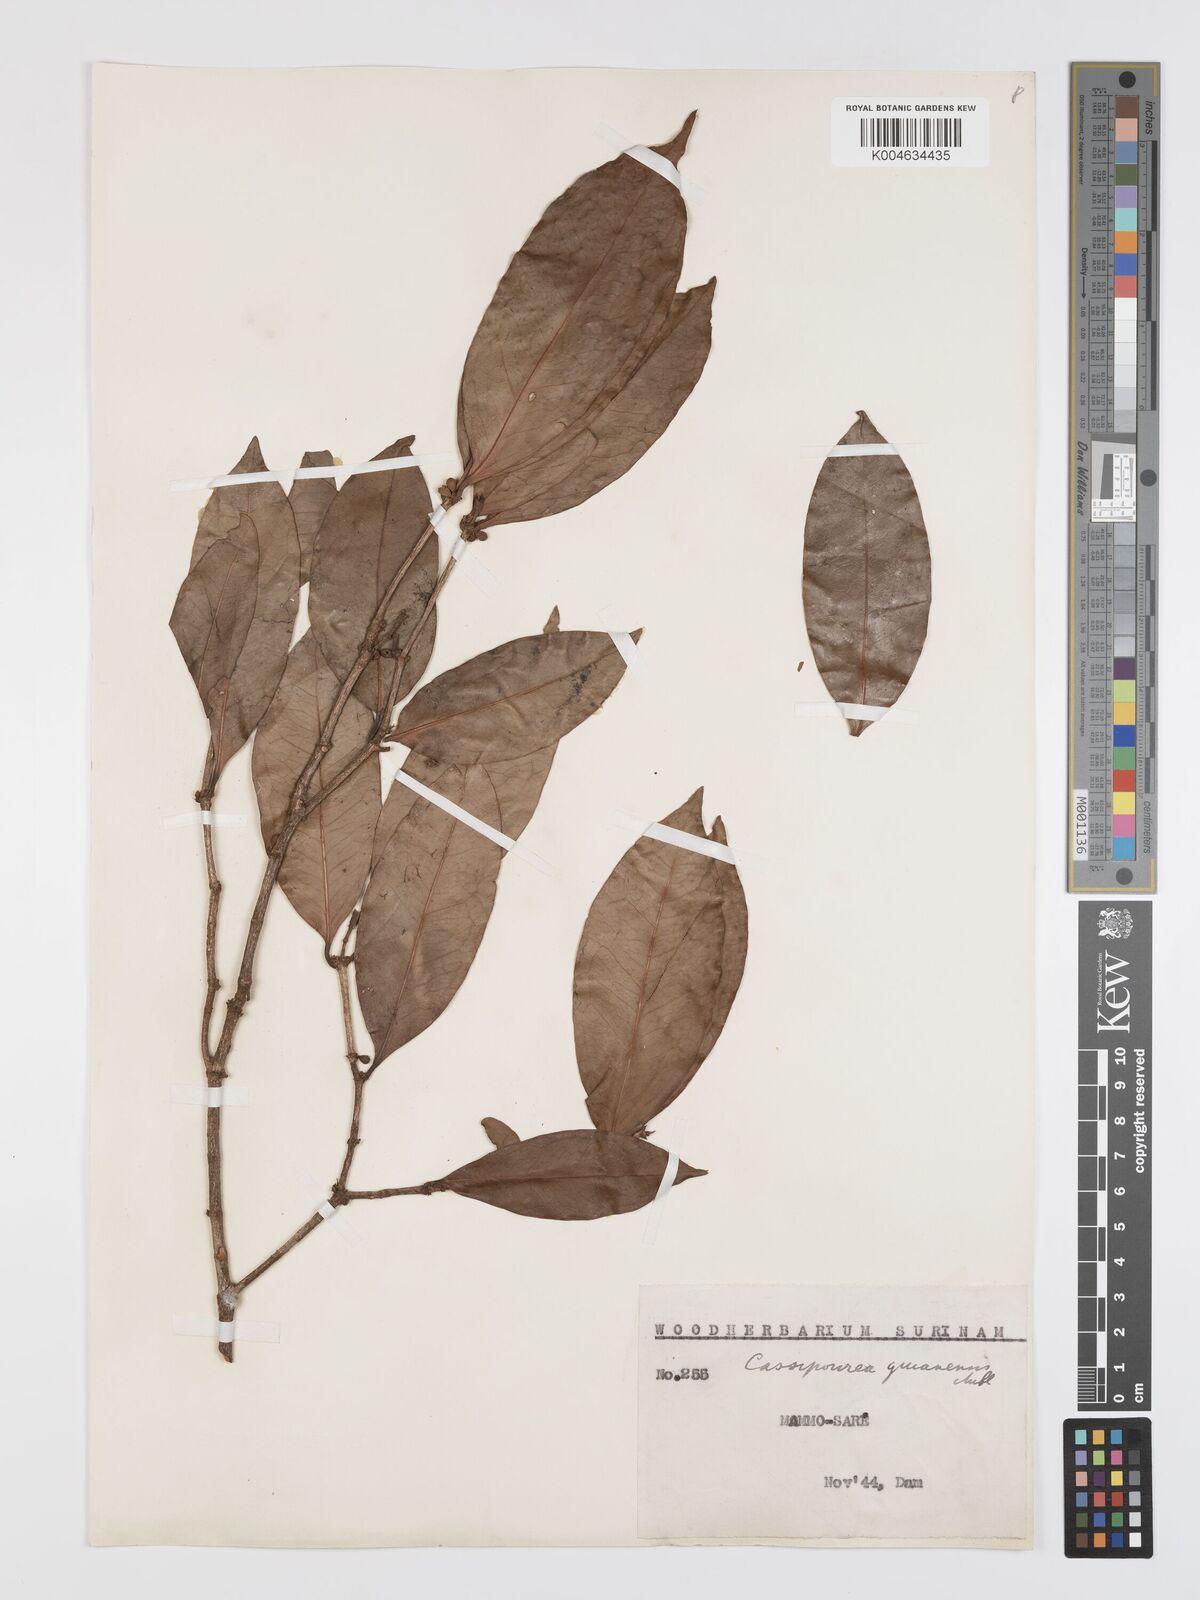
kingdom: Plantae
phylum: Tracheophyta
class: Magnoliopsida
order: Malpighiales
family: Rhizophoraceae
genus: Cassipourea
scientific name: Cassipourea guianensis
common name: Bastard waterwood
